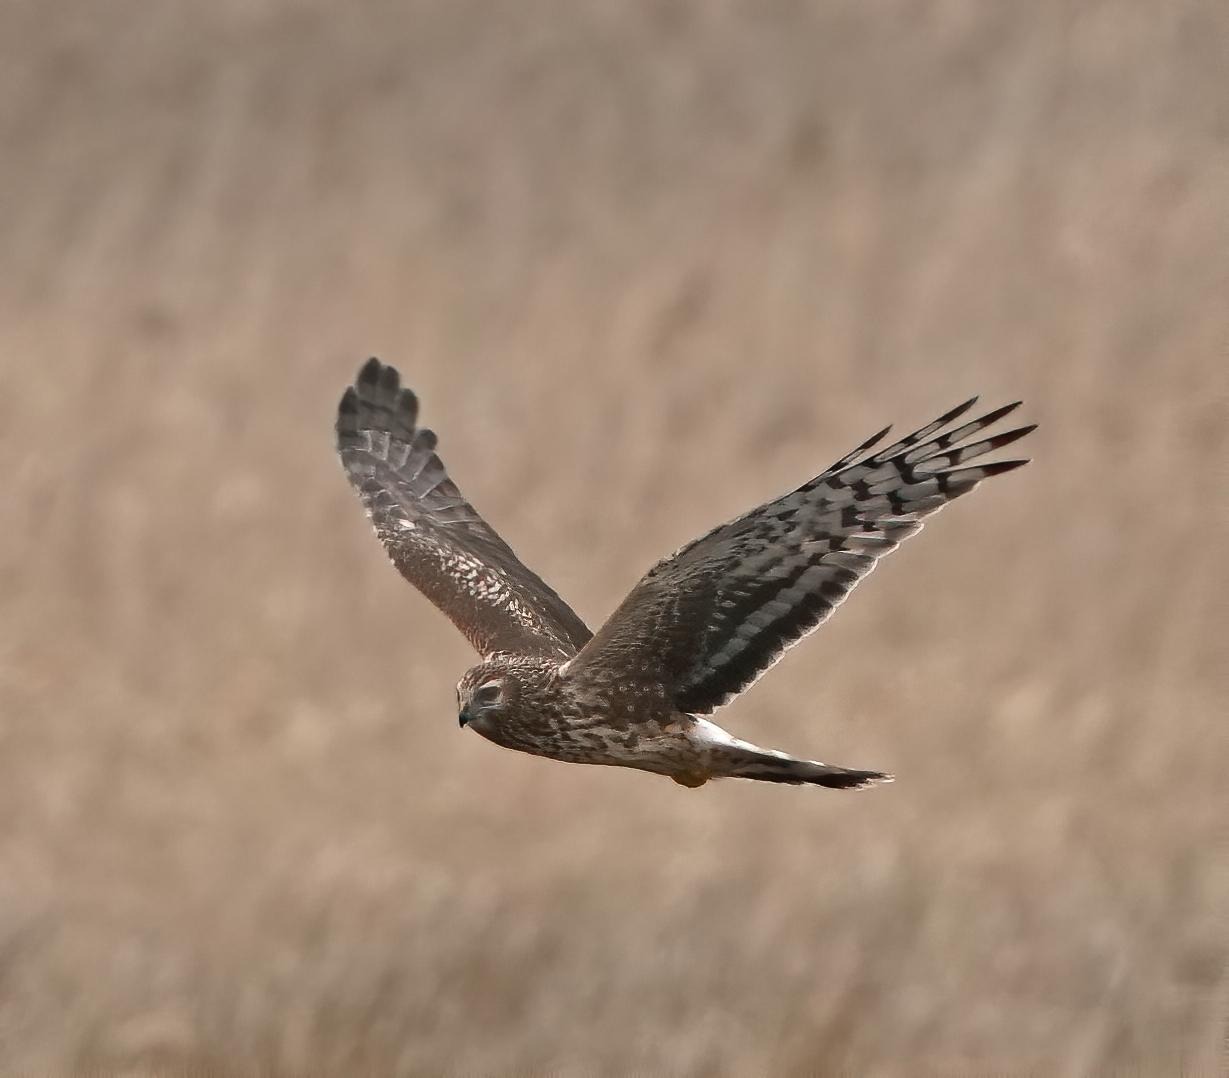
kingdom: Animalia
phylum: Chordata
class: Aves
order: Accipitriformes
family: Accipitridae
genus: Circus
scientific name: Circus cyaneus
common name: Blå kærhøg
